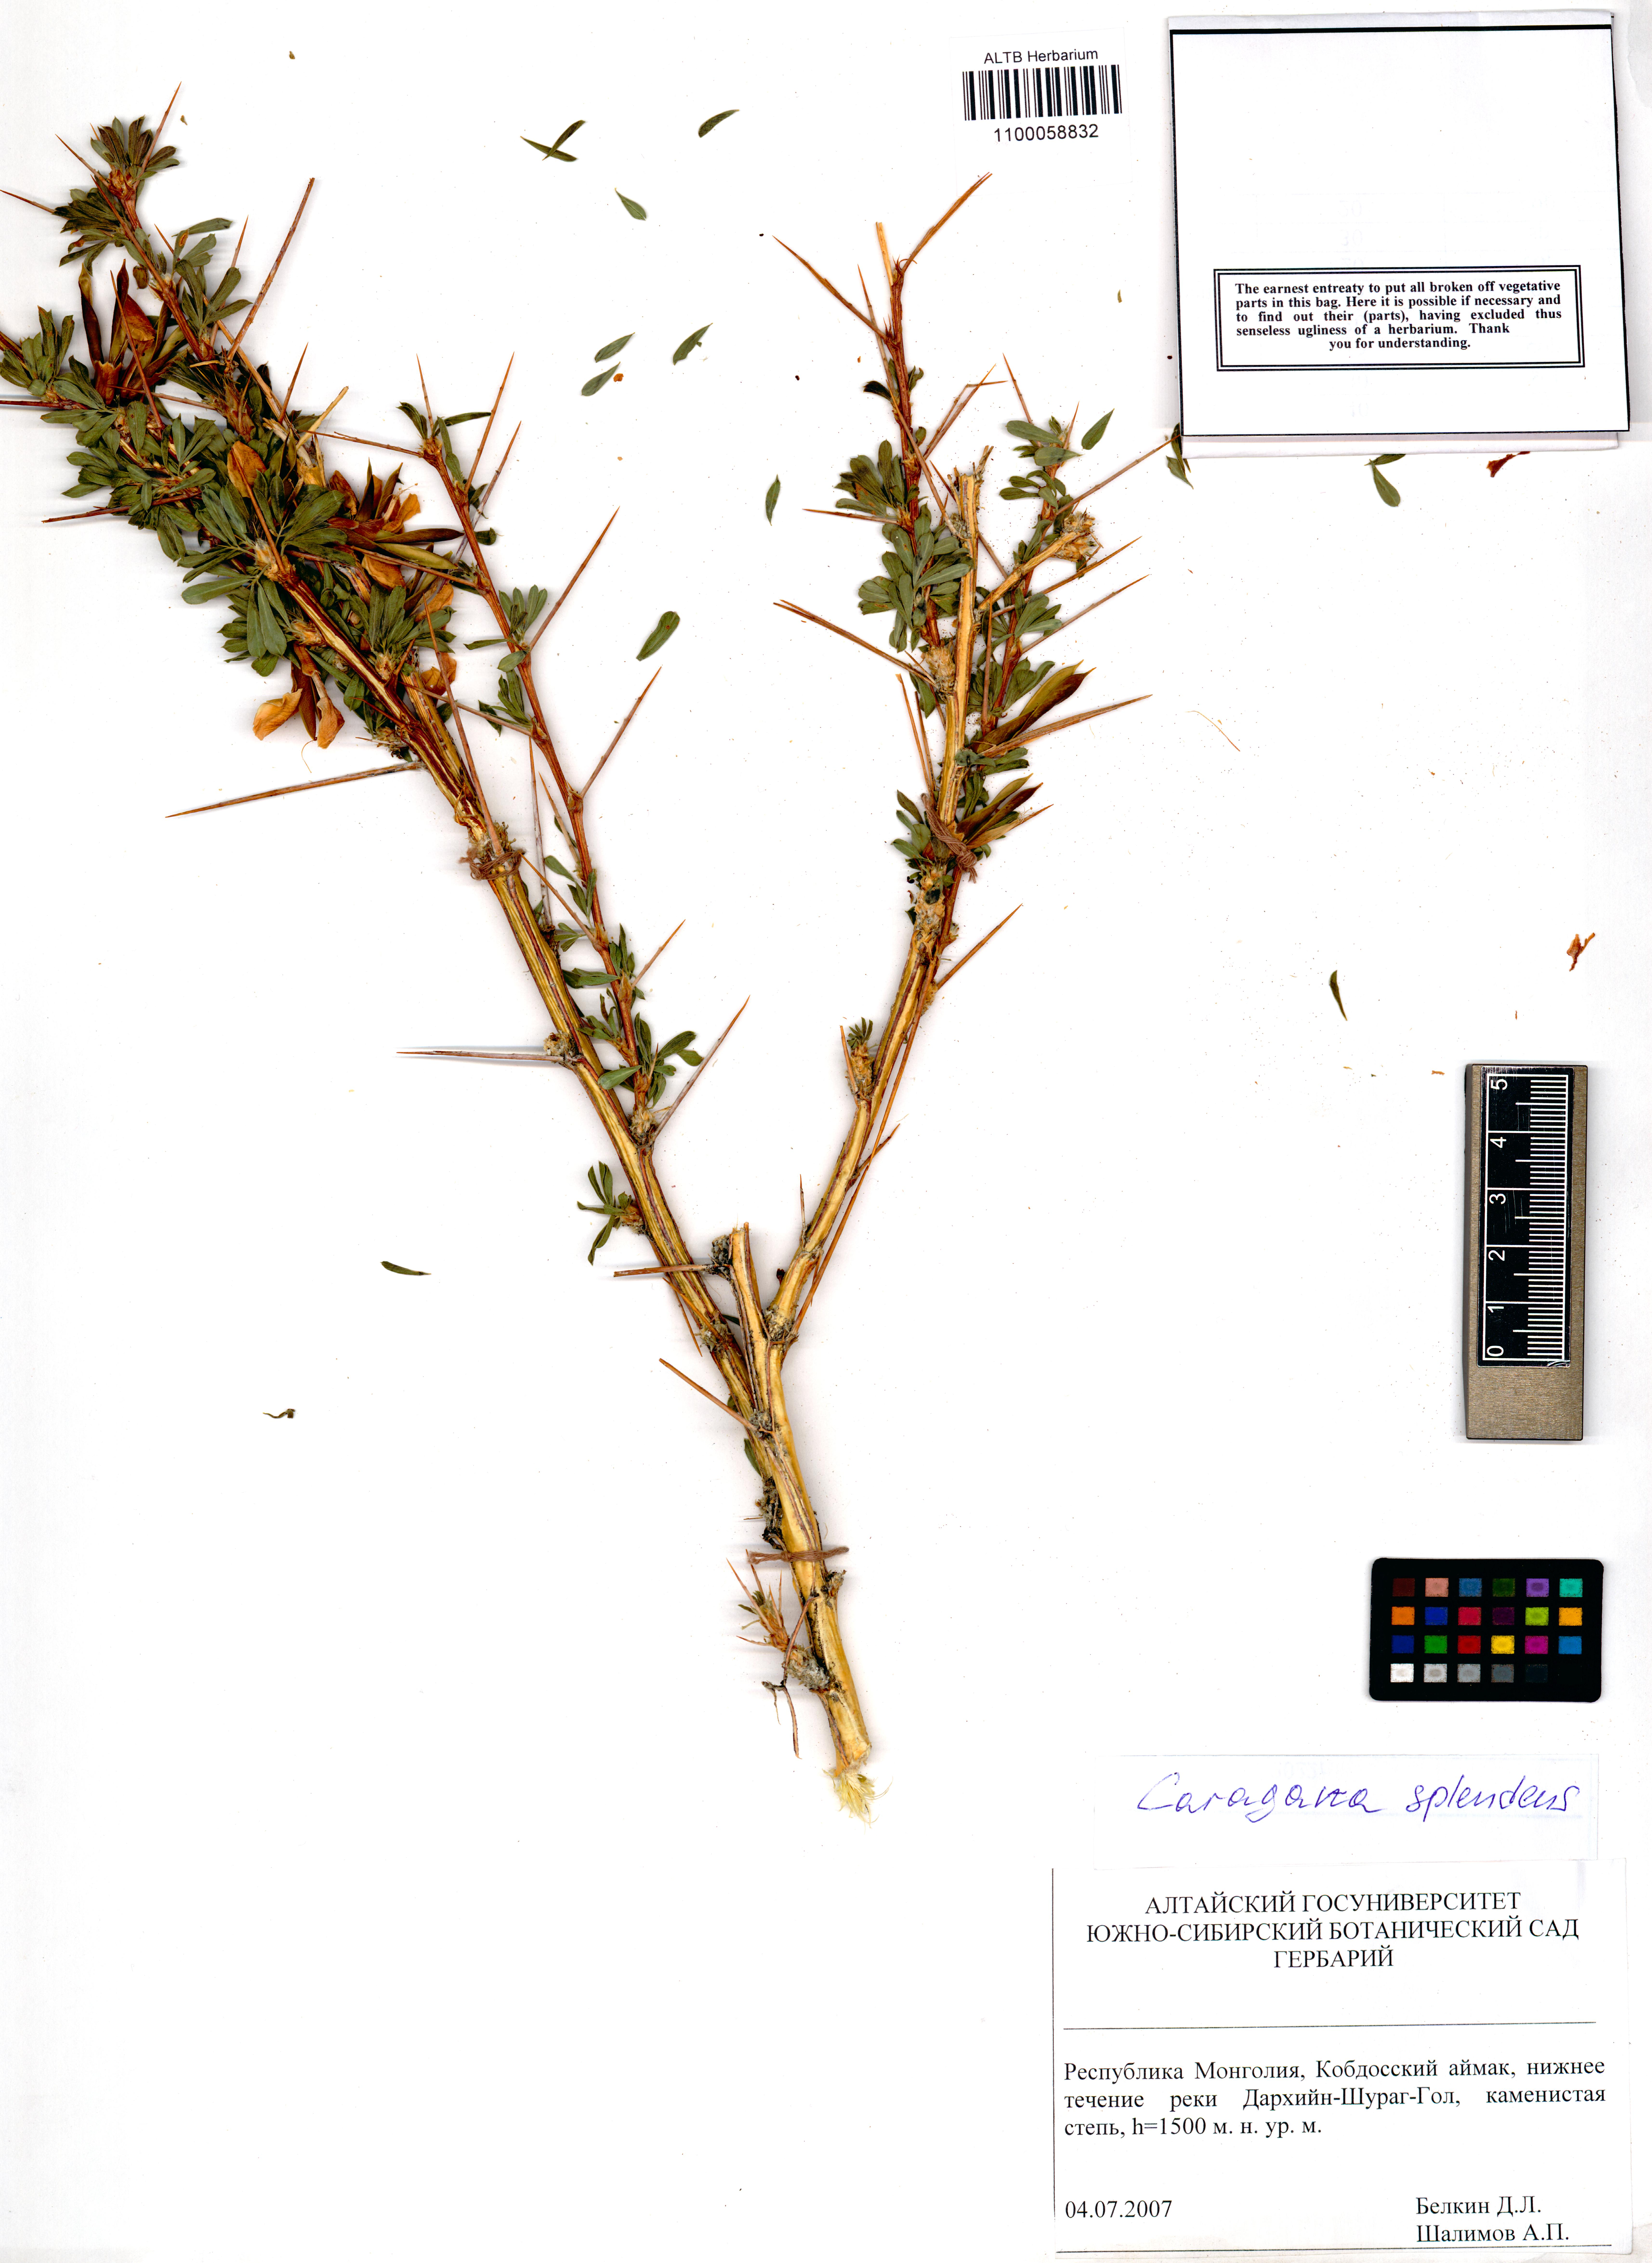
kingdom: Plantae
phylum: Tracheophyta
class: Magnoliopsida
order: Fabales
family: Fabaceae
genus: Caragana
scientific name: Caragana pygmaea
